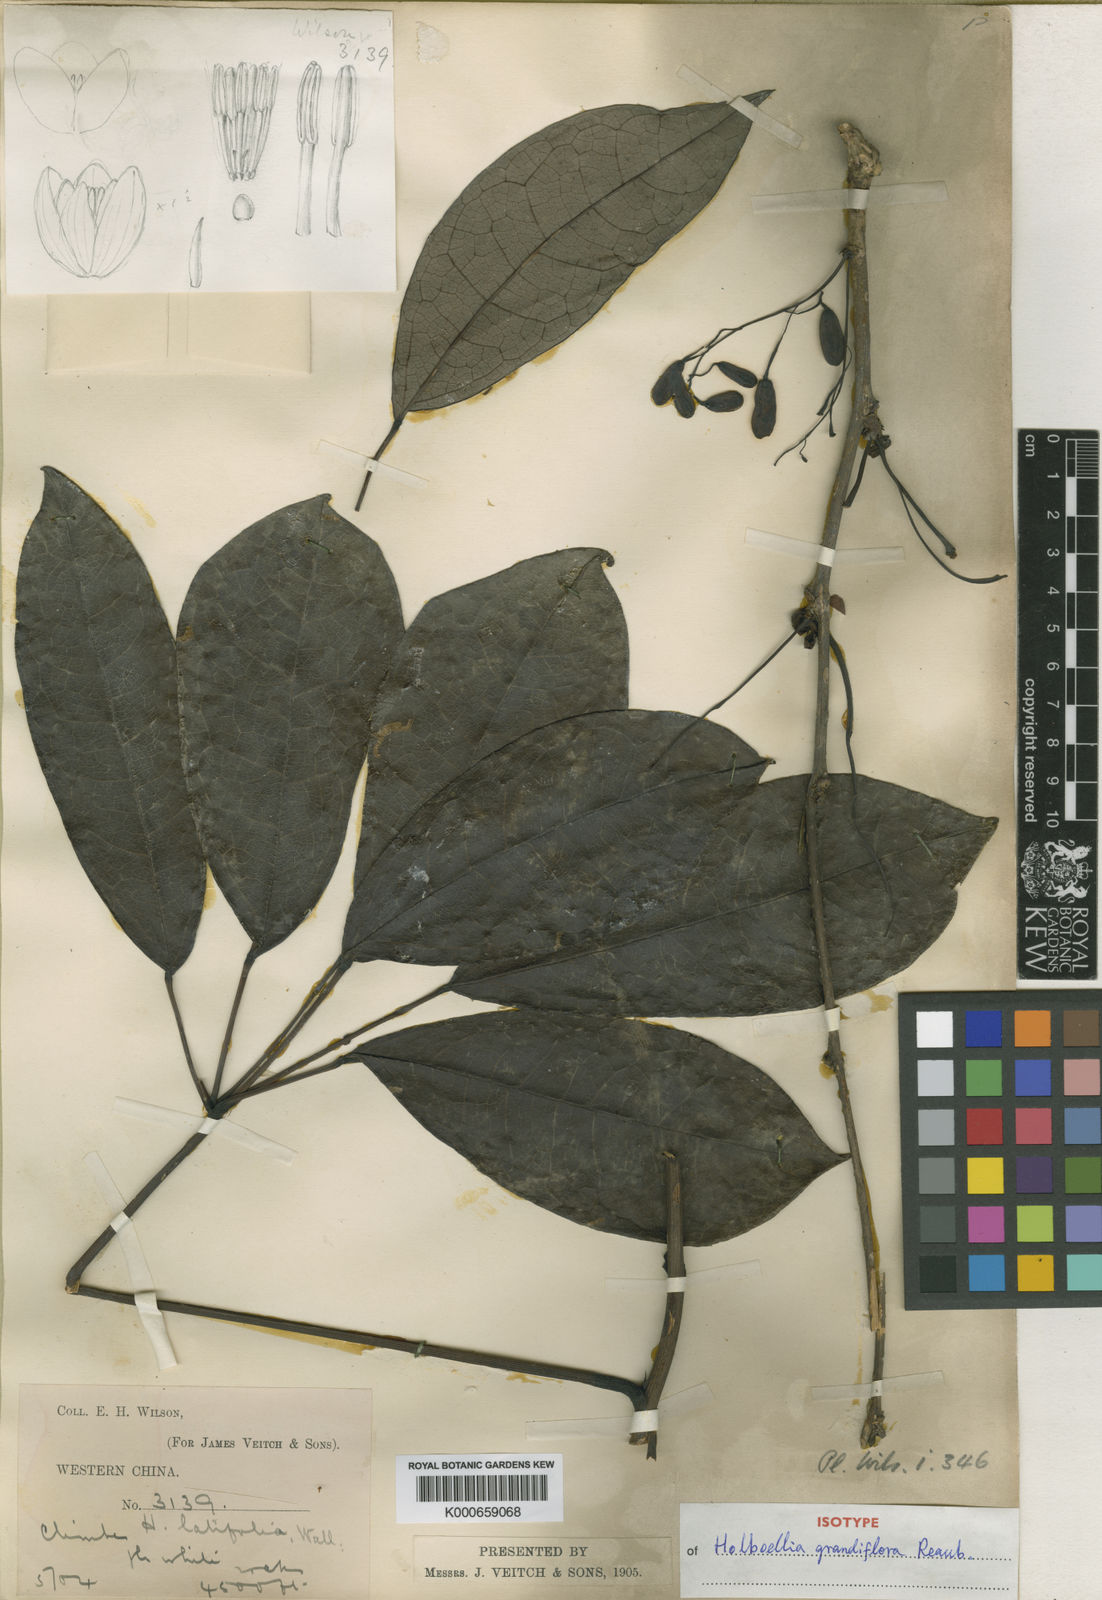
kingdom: Plantae
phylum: Tracheophyta
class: Magnoliopsida
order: Ranunculales
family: Lardizabalaceae
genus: Stauntonia
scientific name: Stauntonia grandiflora
